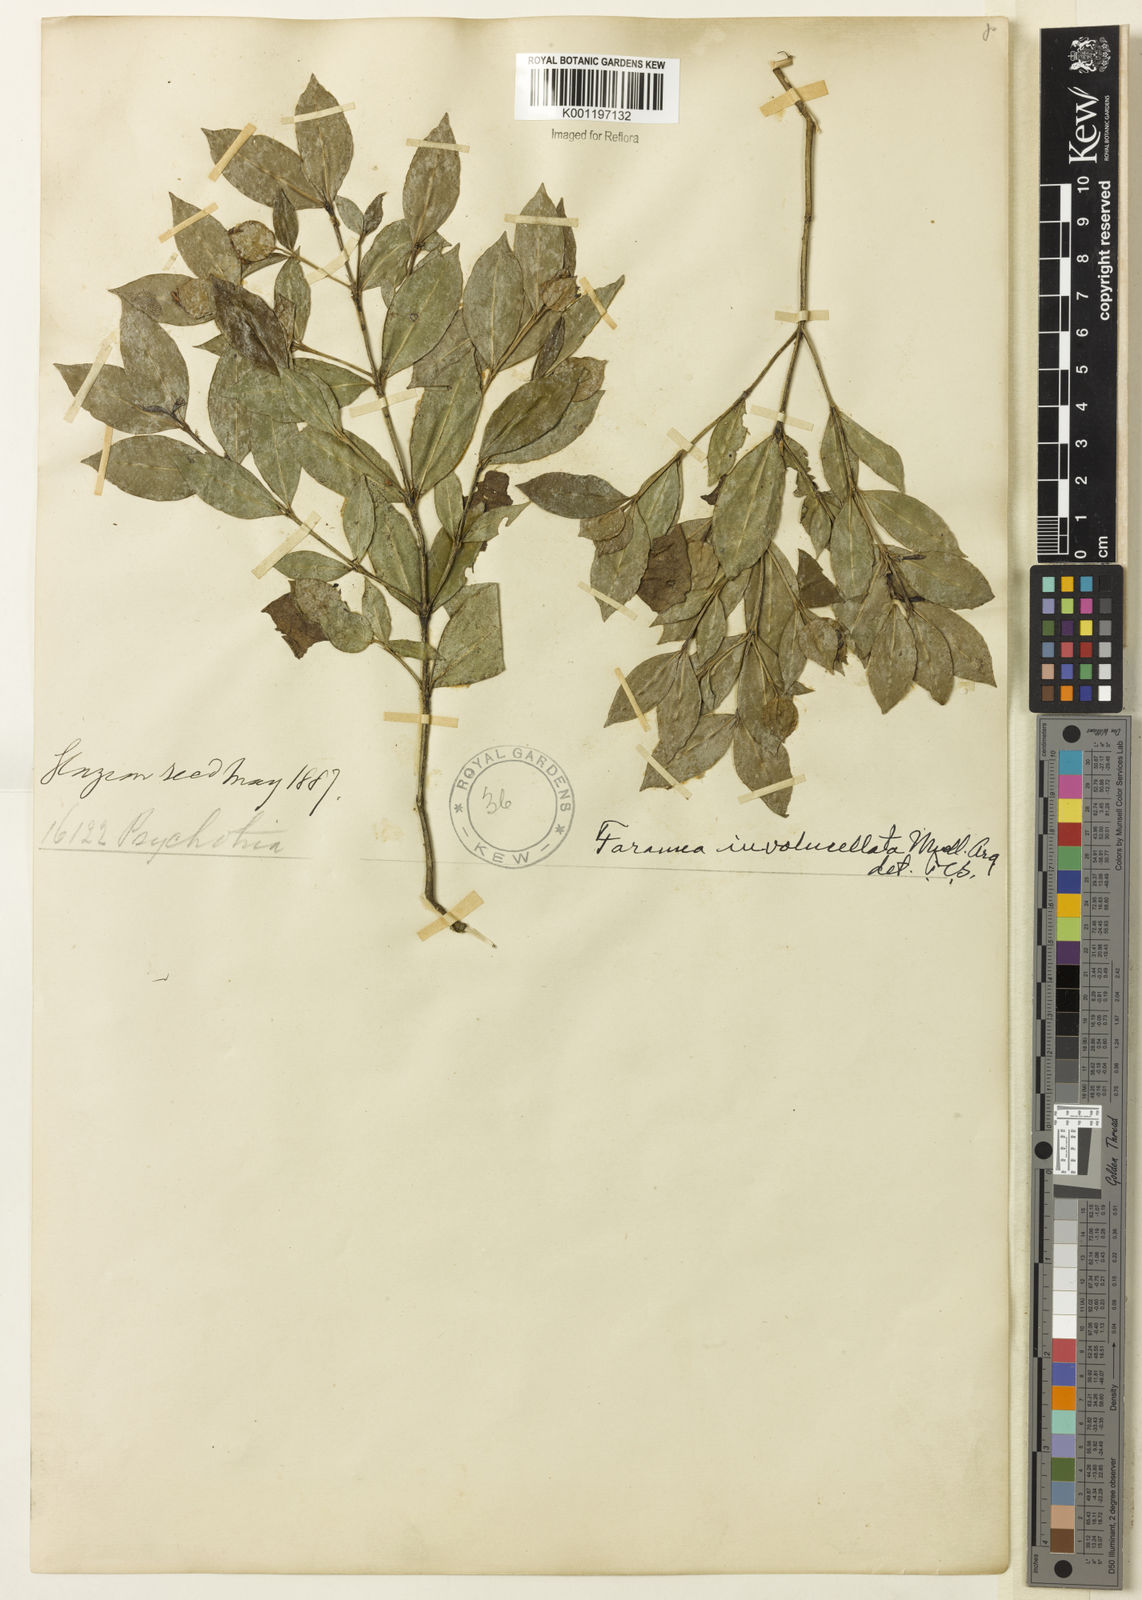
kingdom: Plantae
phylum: Tracheophyta
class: Magnoliopsida
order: Gentianales
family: Rubiaceae
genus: Faramea
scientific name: Faramea
